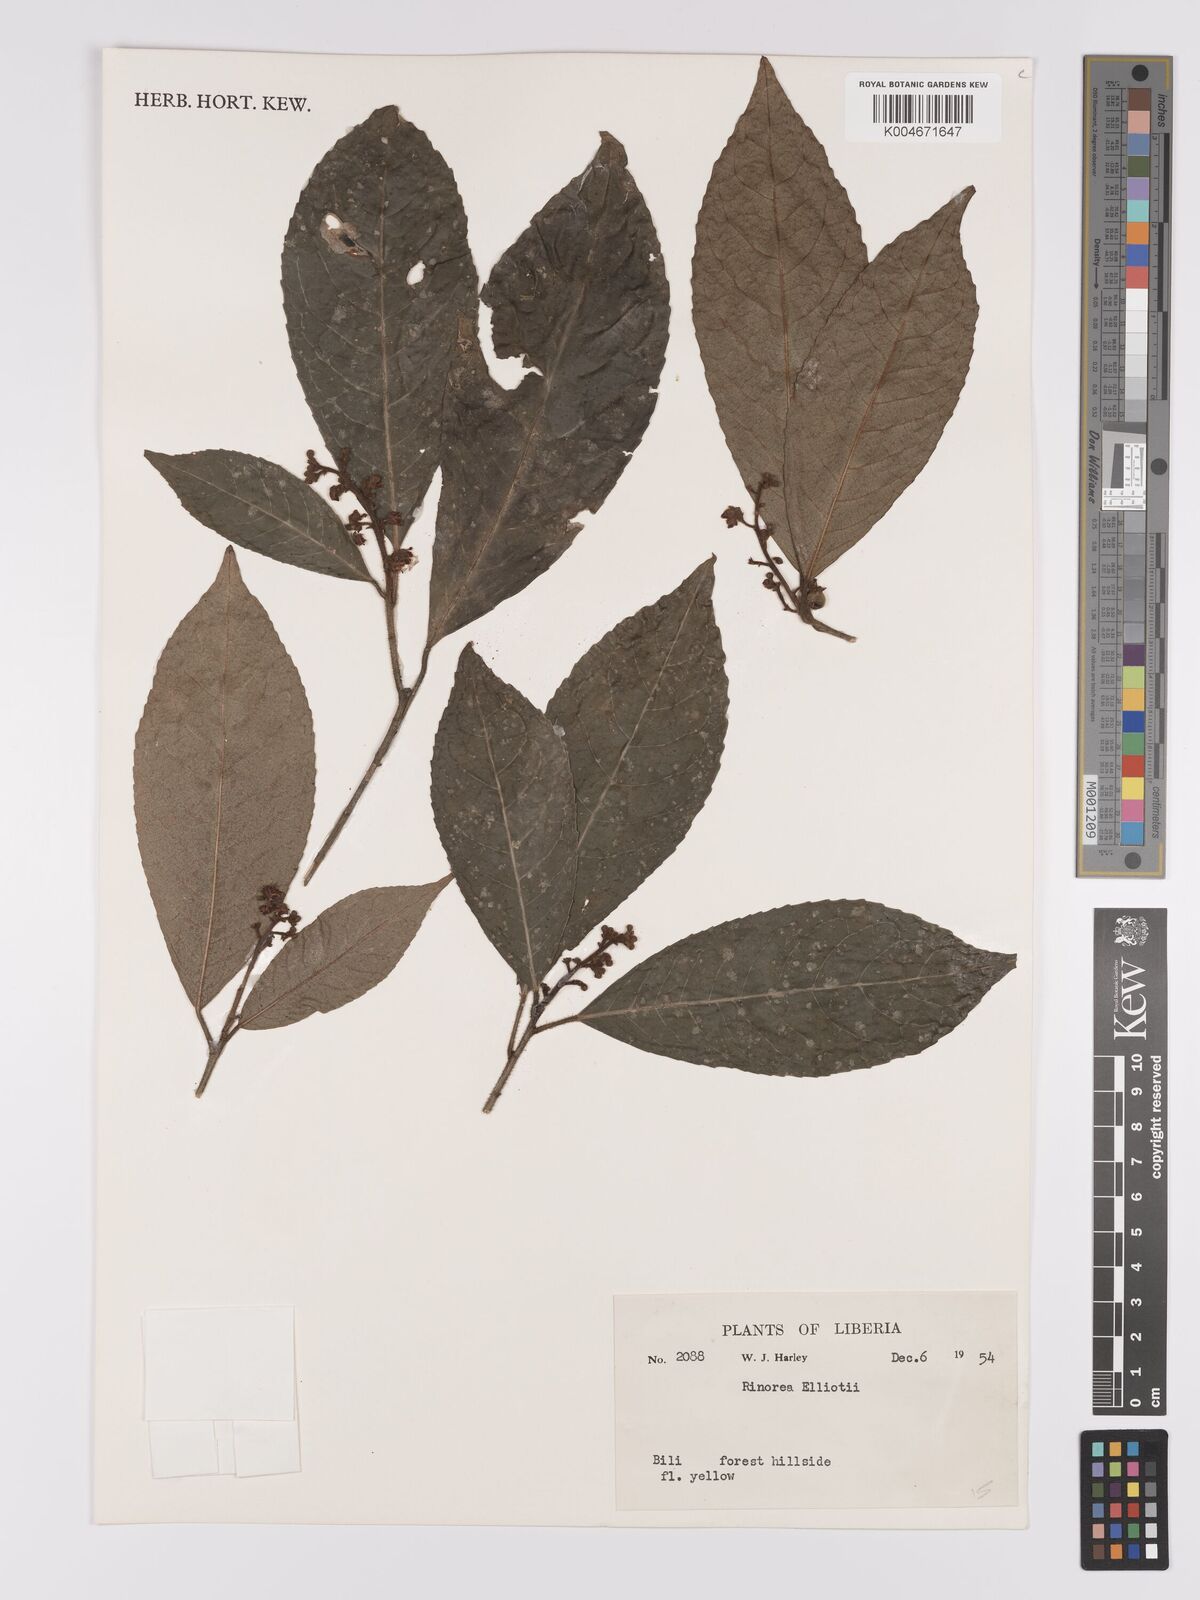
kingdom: Plantae
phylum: Tracheophyta
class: Magnoliopsida
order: Malpighiales
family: Violaceae
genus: Rinorea
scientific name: Rinorea welwitschii
